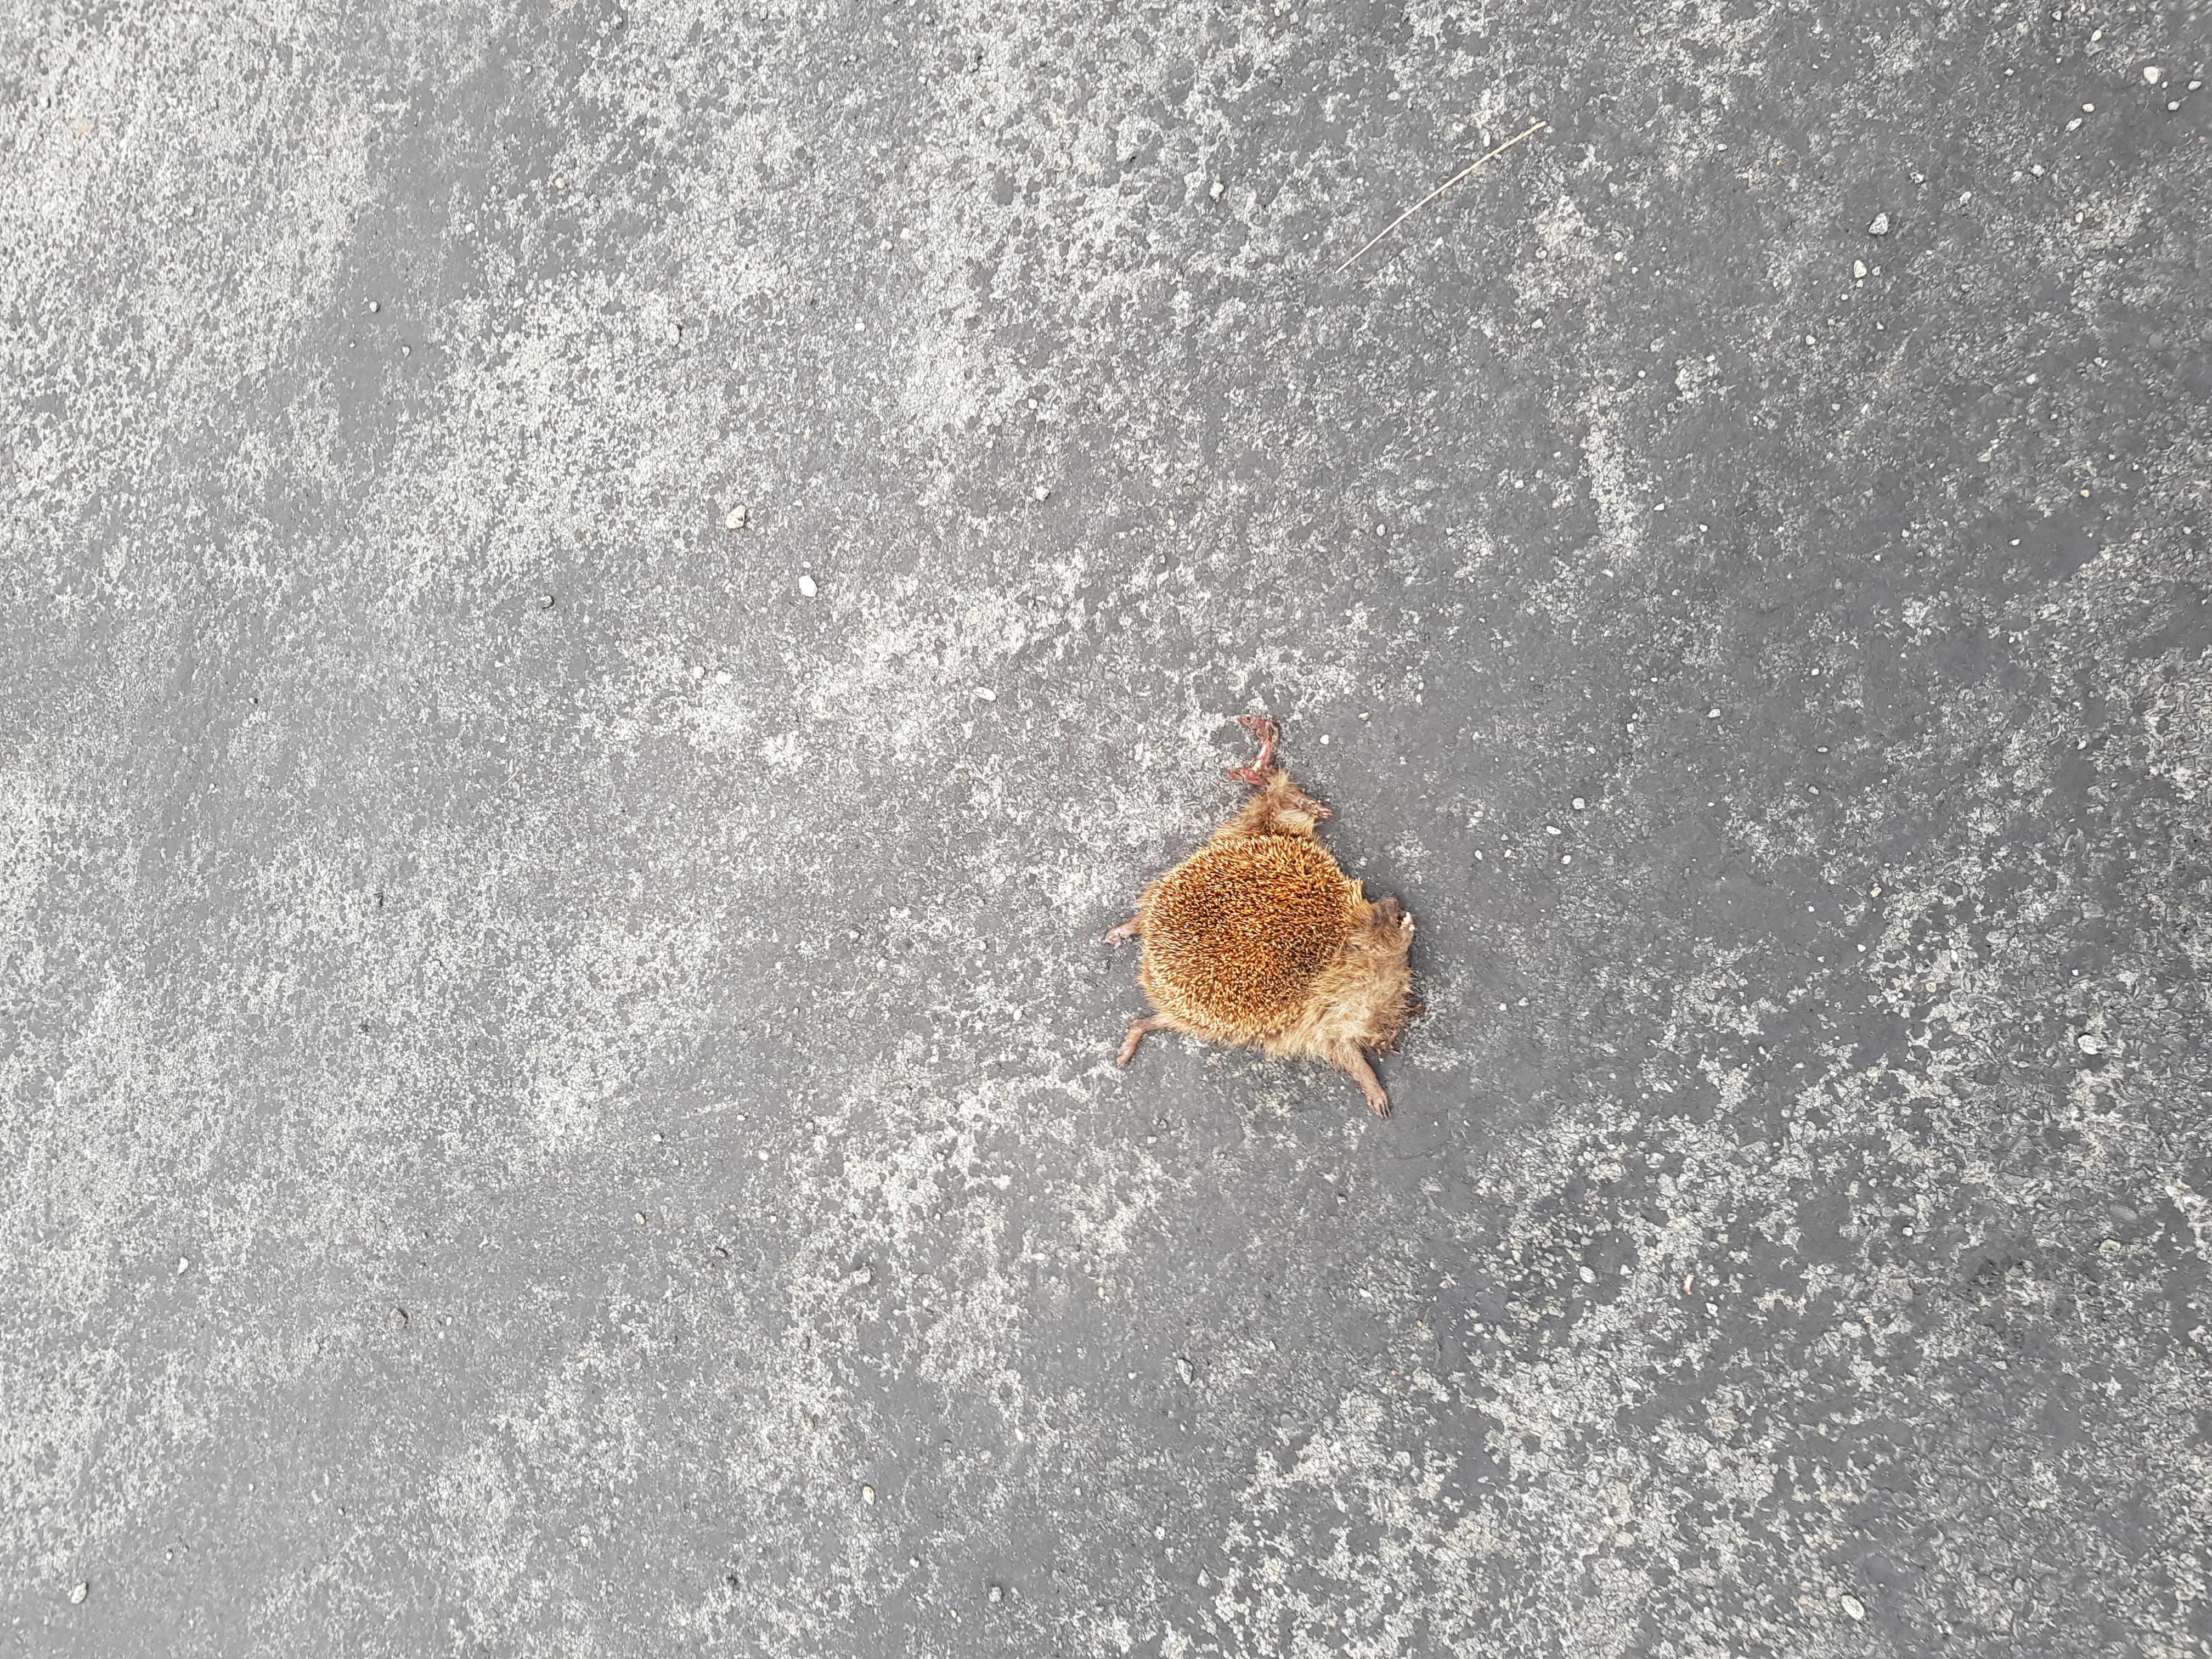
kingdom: Animalia
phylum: Chordata
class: Mammalia
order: Erinaceomorpha
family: Erinaceidae
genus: Erinaceus
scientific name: Erinaceus
